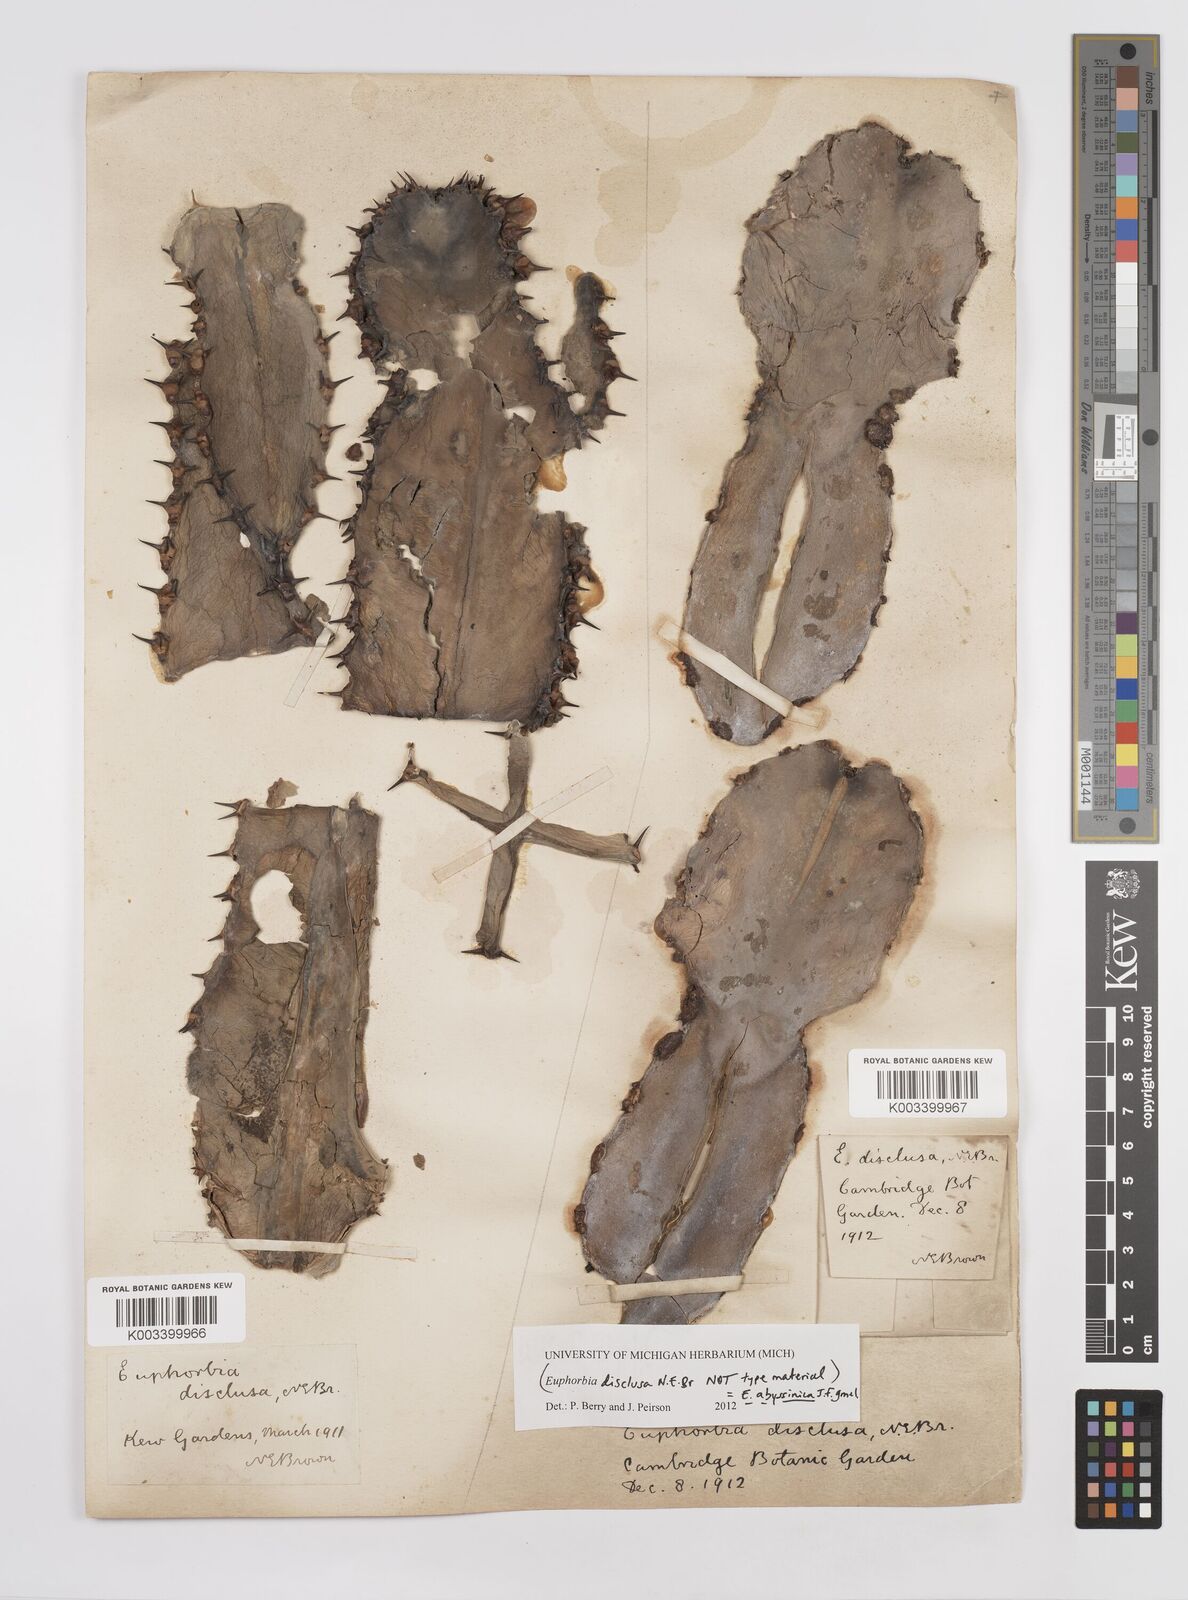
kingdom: Plantae
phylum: Tracheophyta
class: Magnoliopsida
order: Malpighiales
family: Euphorbiaceae
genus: Euphorbia
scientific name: Euphorbia abyssinica
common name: Abyssinian spurge
